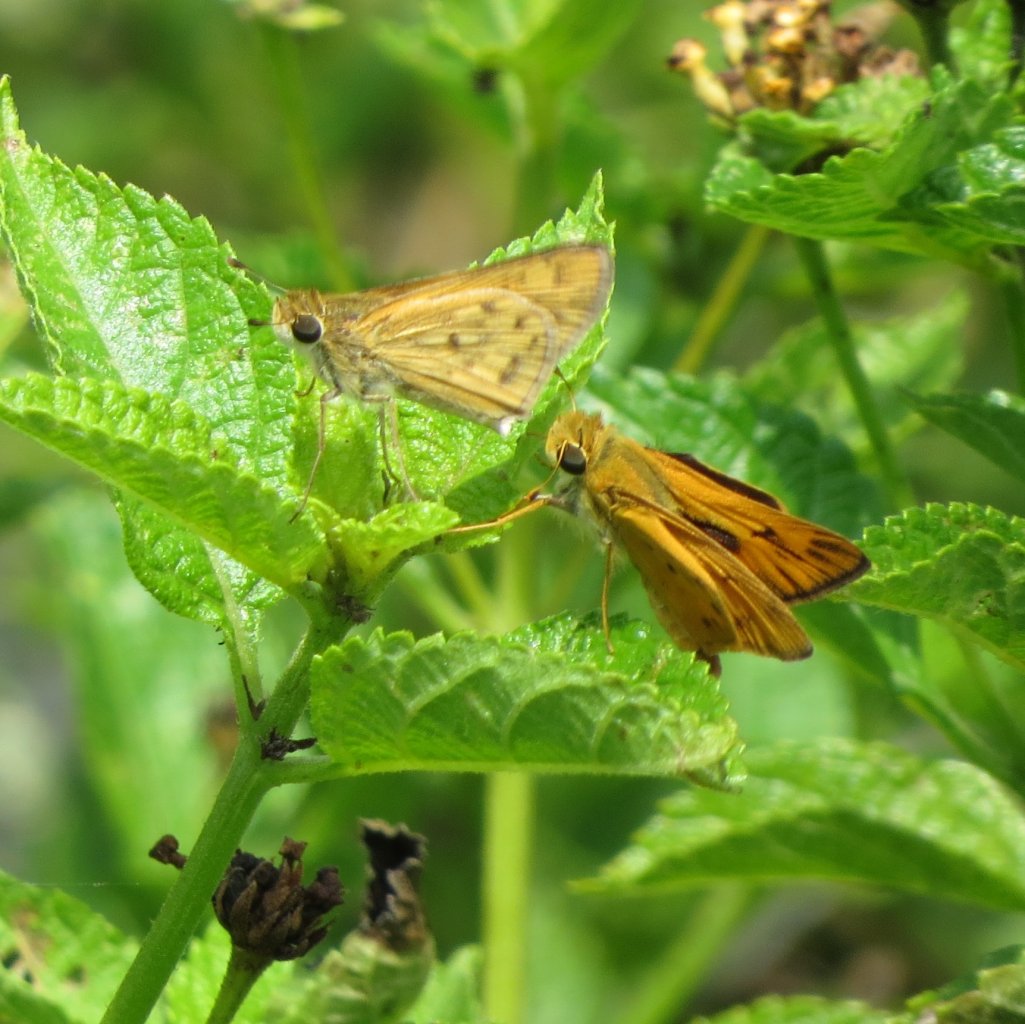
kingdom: Animalia
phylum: Arthropoda
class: Insecta
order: Lepidoptera
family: Hesperiidae
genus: Hylephila
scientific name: Hylephila phyleus
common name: Fiery Skipper
